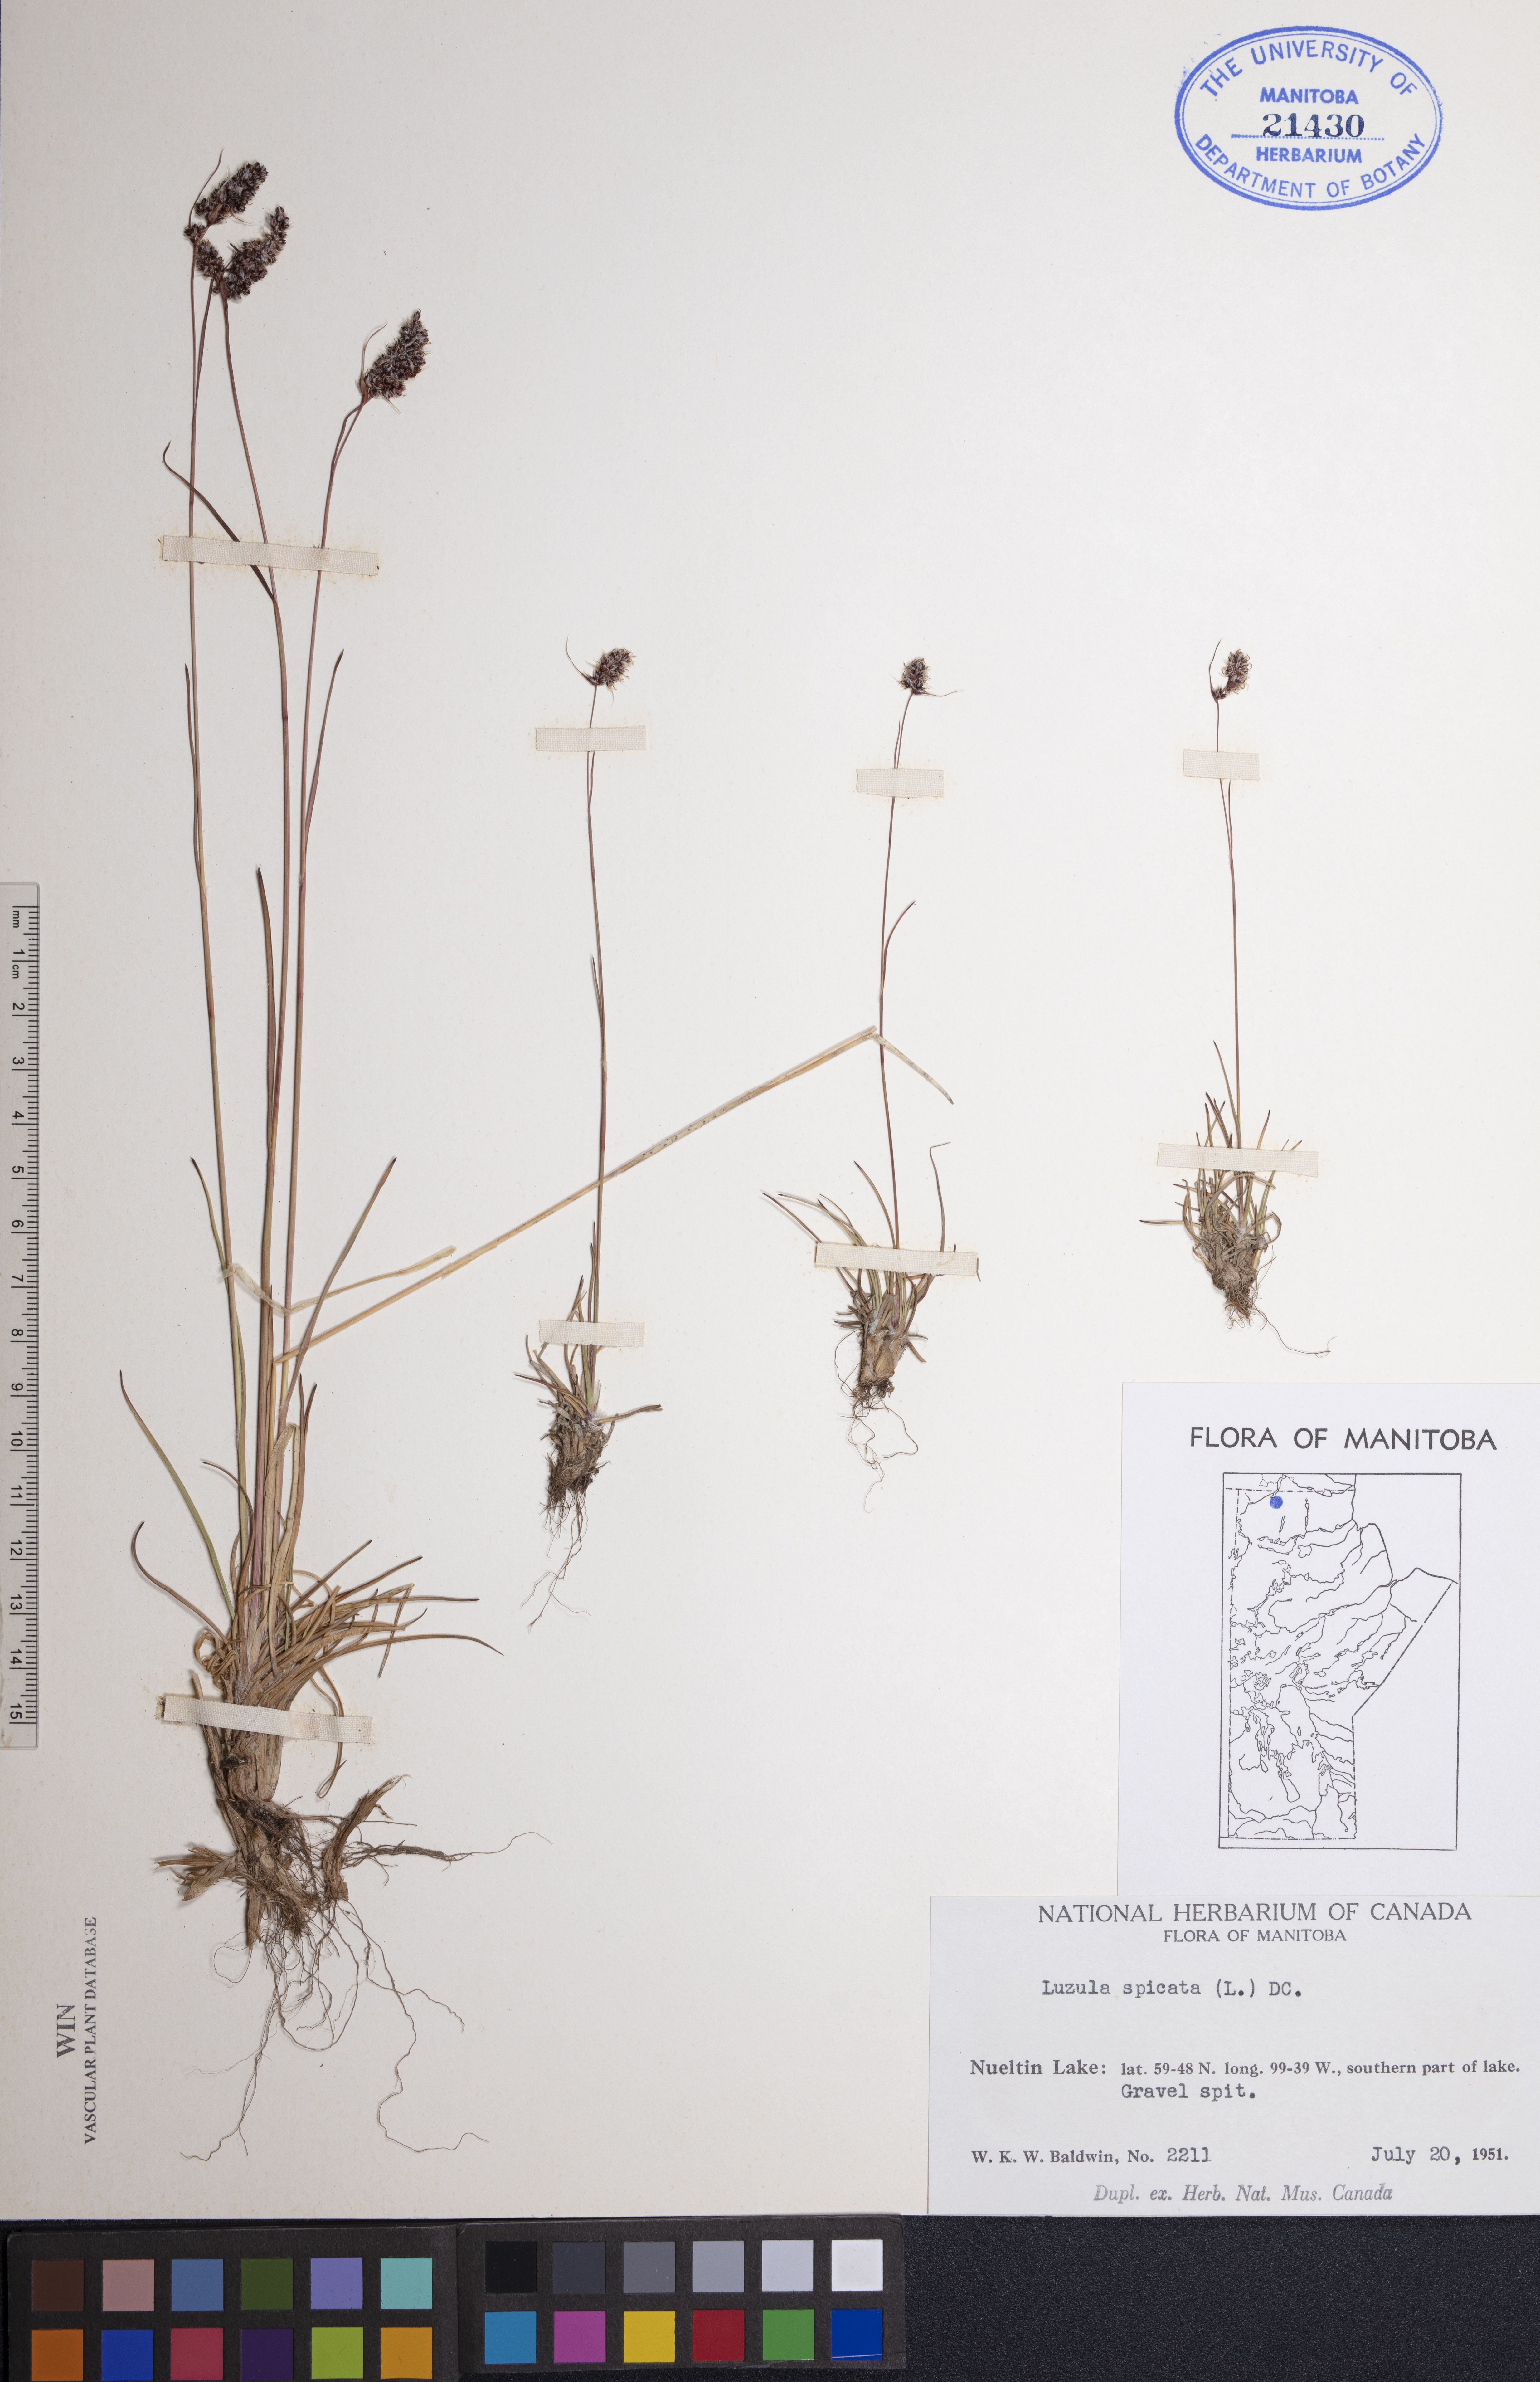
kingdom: Plantae
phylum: Tracheophyta
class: Liliopsida
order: Poales
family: Juncaceae
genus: Luzula
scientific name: Luzula spicata
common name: Spiked wood-rush
